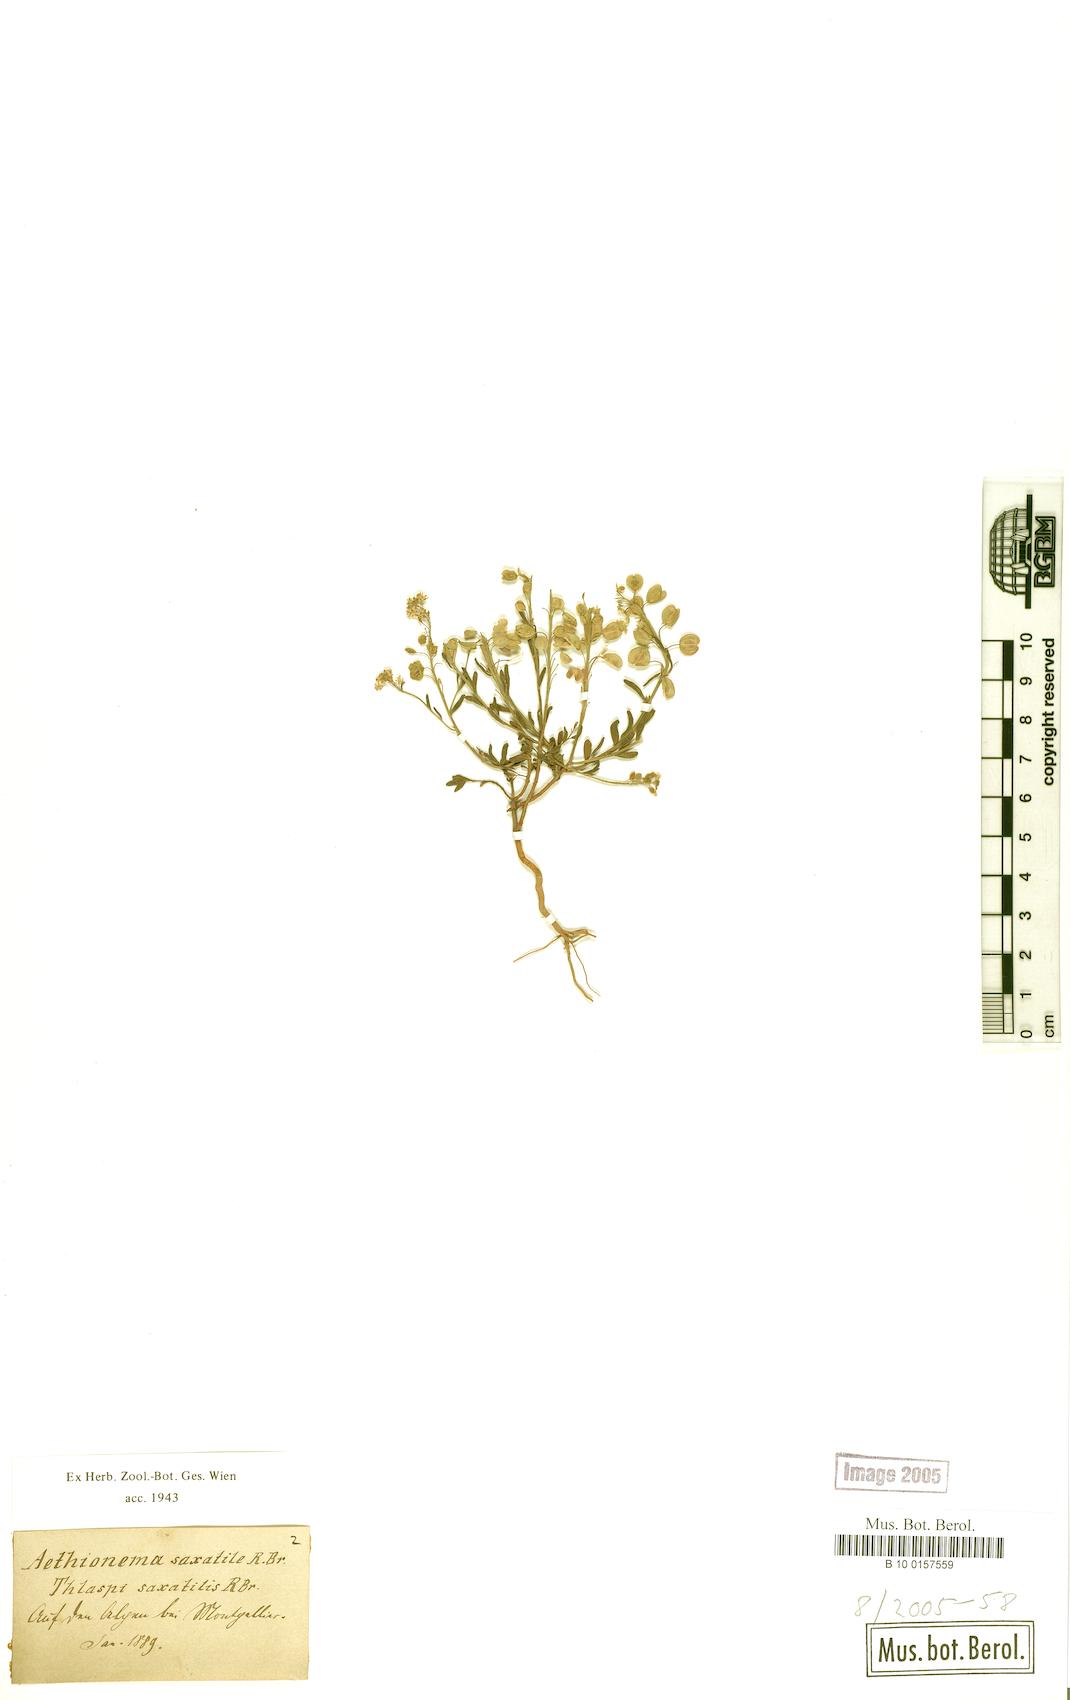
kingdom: Plantae
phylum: Tracheophyta
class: Magnoliopsida
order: Brassicales
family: Brassicaceae
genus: Aethionema
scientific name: Aethionema saxatile
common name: Burnt candytuft
